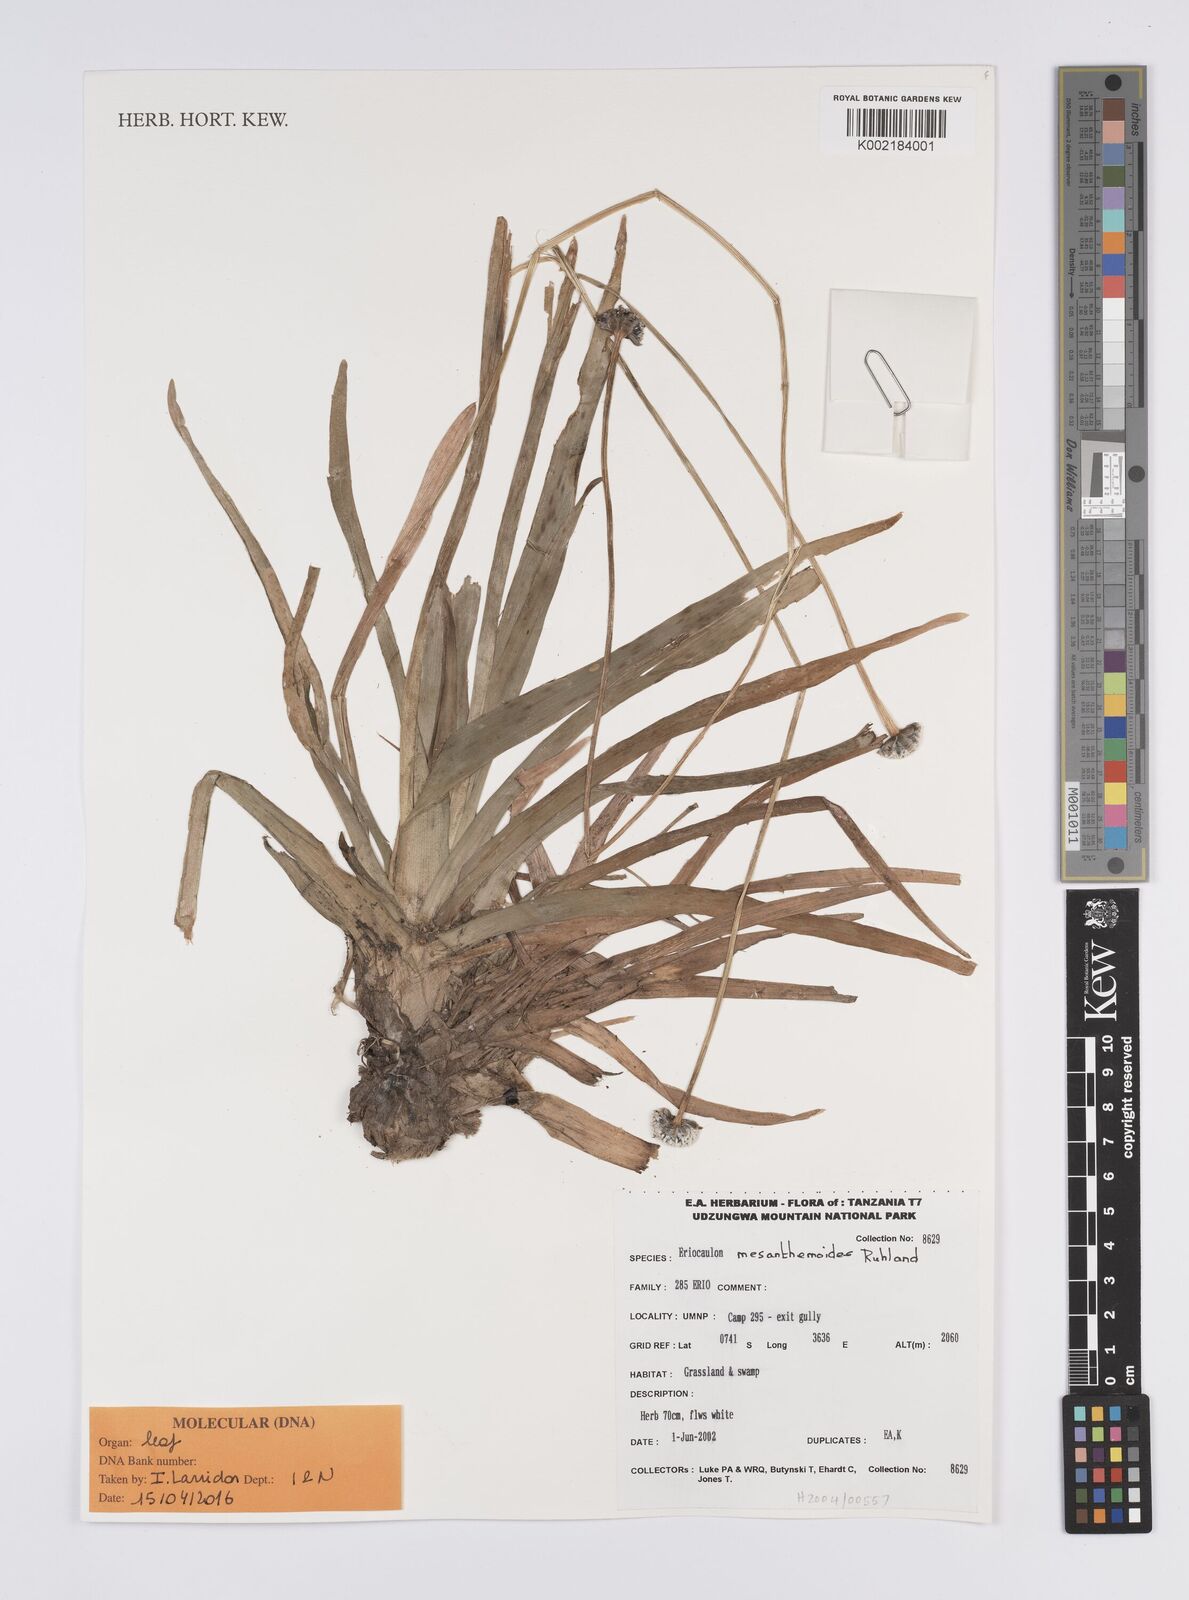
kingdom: Plantae
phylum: Tracheophyta
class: Liliopsida
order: Poales
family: Eriocaulaceae
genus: Eriocaulon
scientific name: Eriocaulon mesanthemoides
